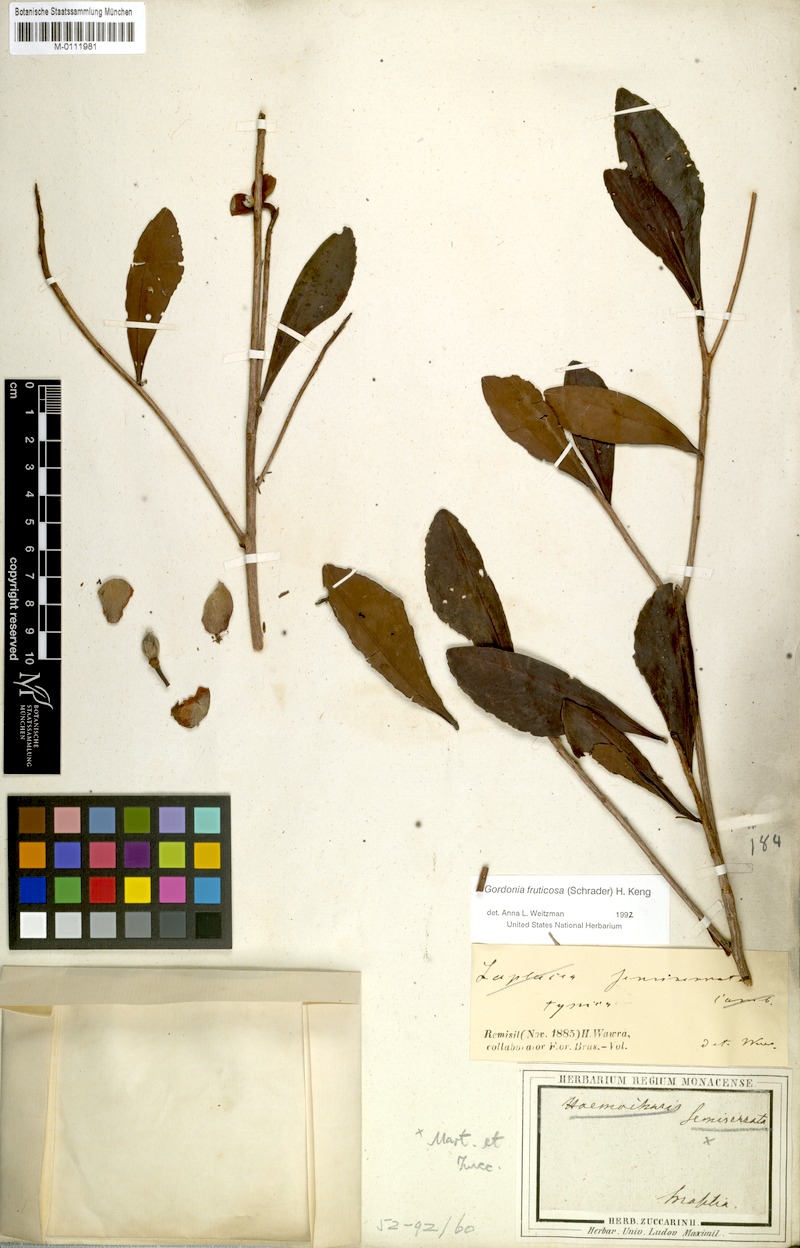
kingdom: Plantae
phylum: Tracheophyta
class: Magnoliopsida
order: Ericales
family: Theaceae
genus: Gordonia
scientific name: Gordonia fruticosa
